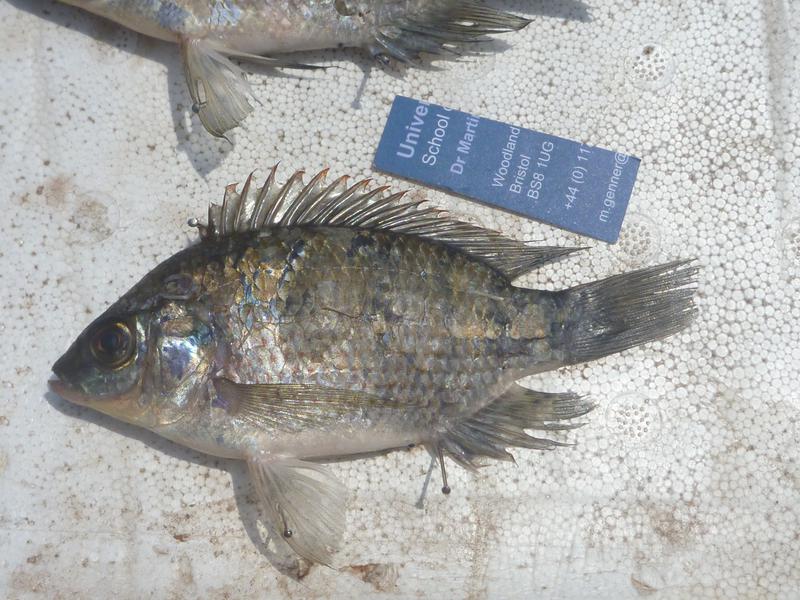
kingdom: Animalia
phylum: Chordata
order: Perciformes
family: Cichlidae
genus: Oreochromis
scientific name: Oreochromis upembae
